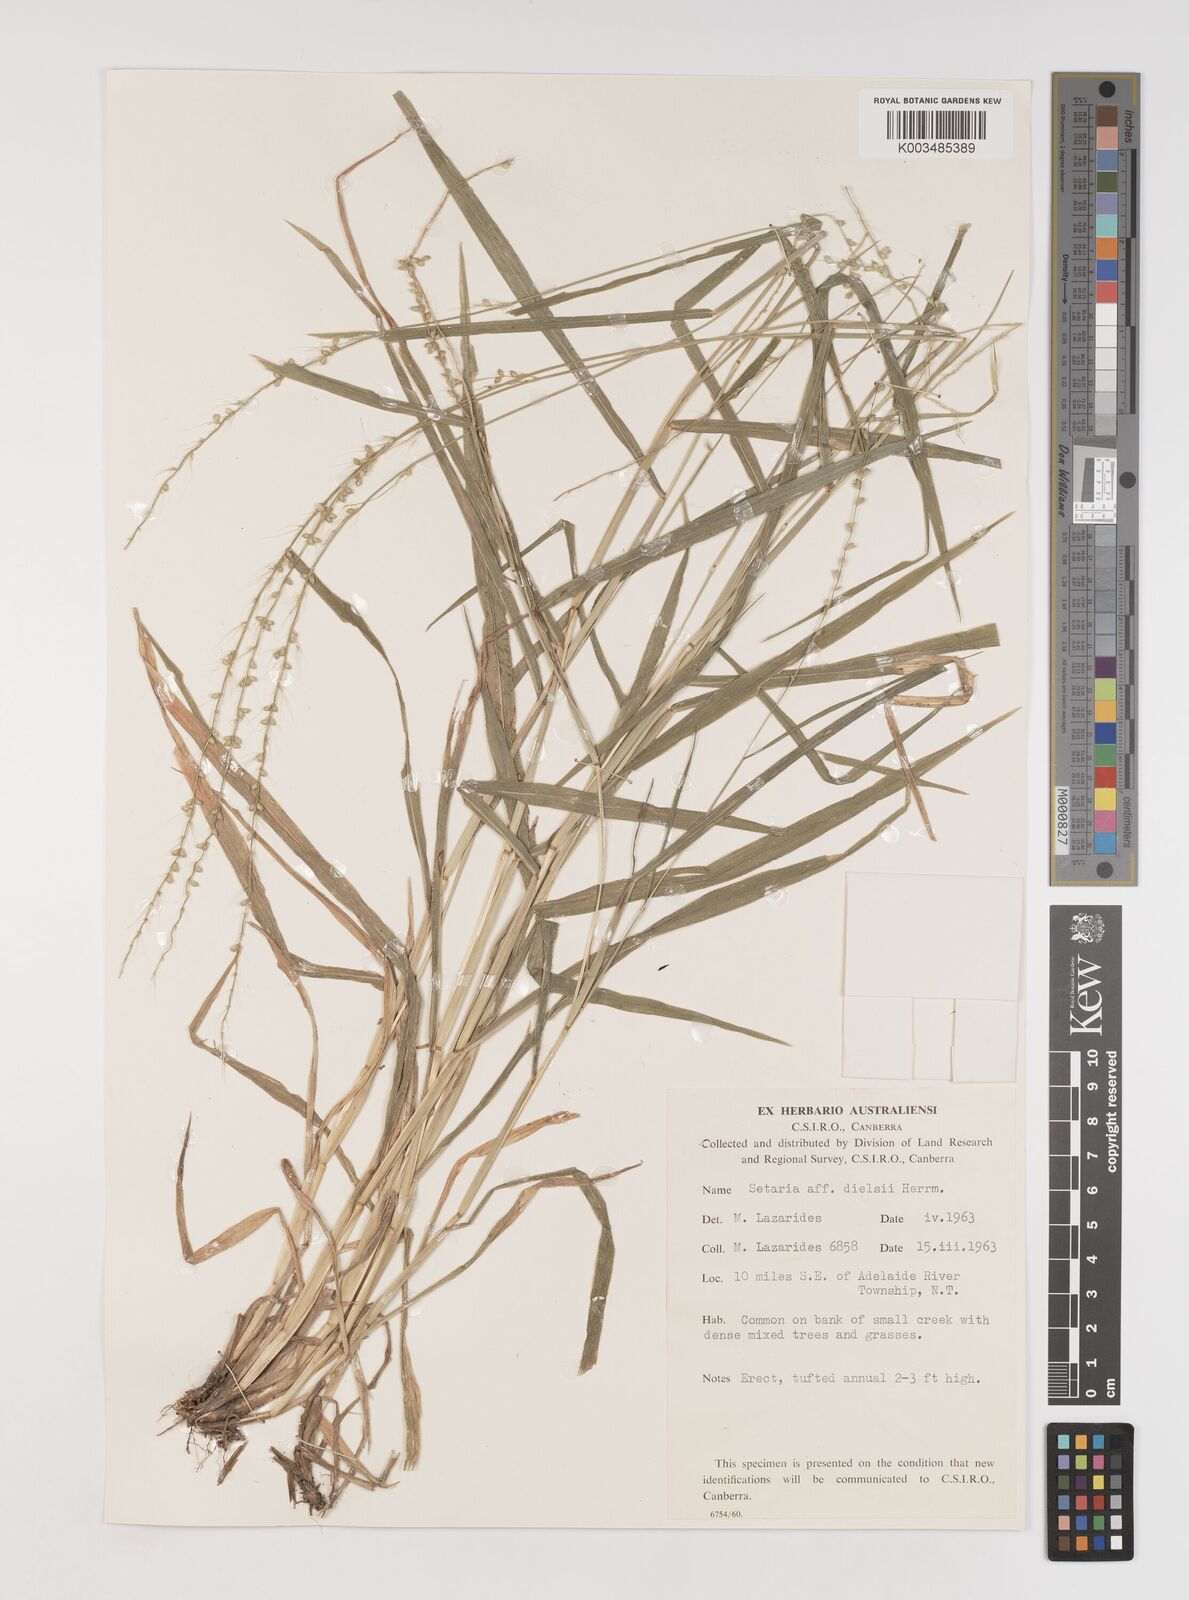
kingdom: Plantae
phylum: Tracheophyta
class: Liliopsida
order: Poales
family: Poaceae
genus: Setaria
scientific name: Setaria oplismenoides
